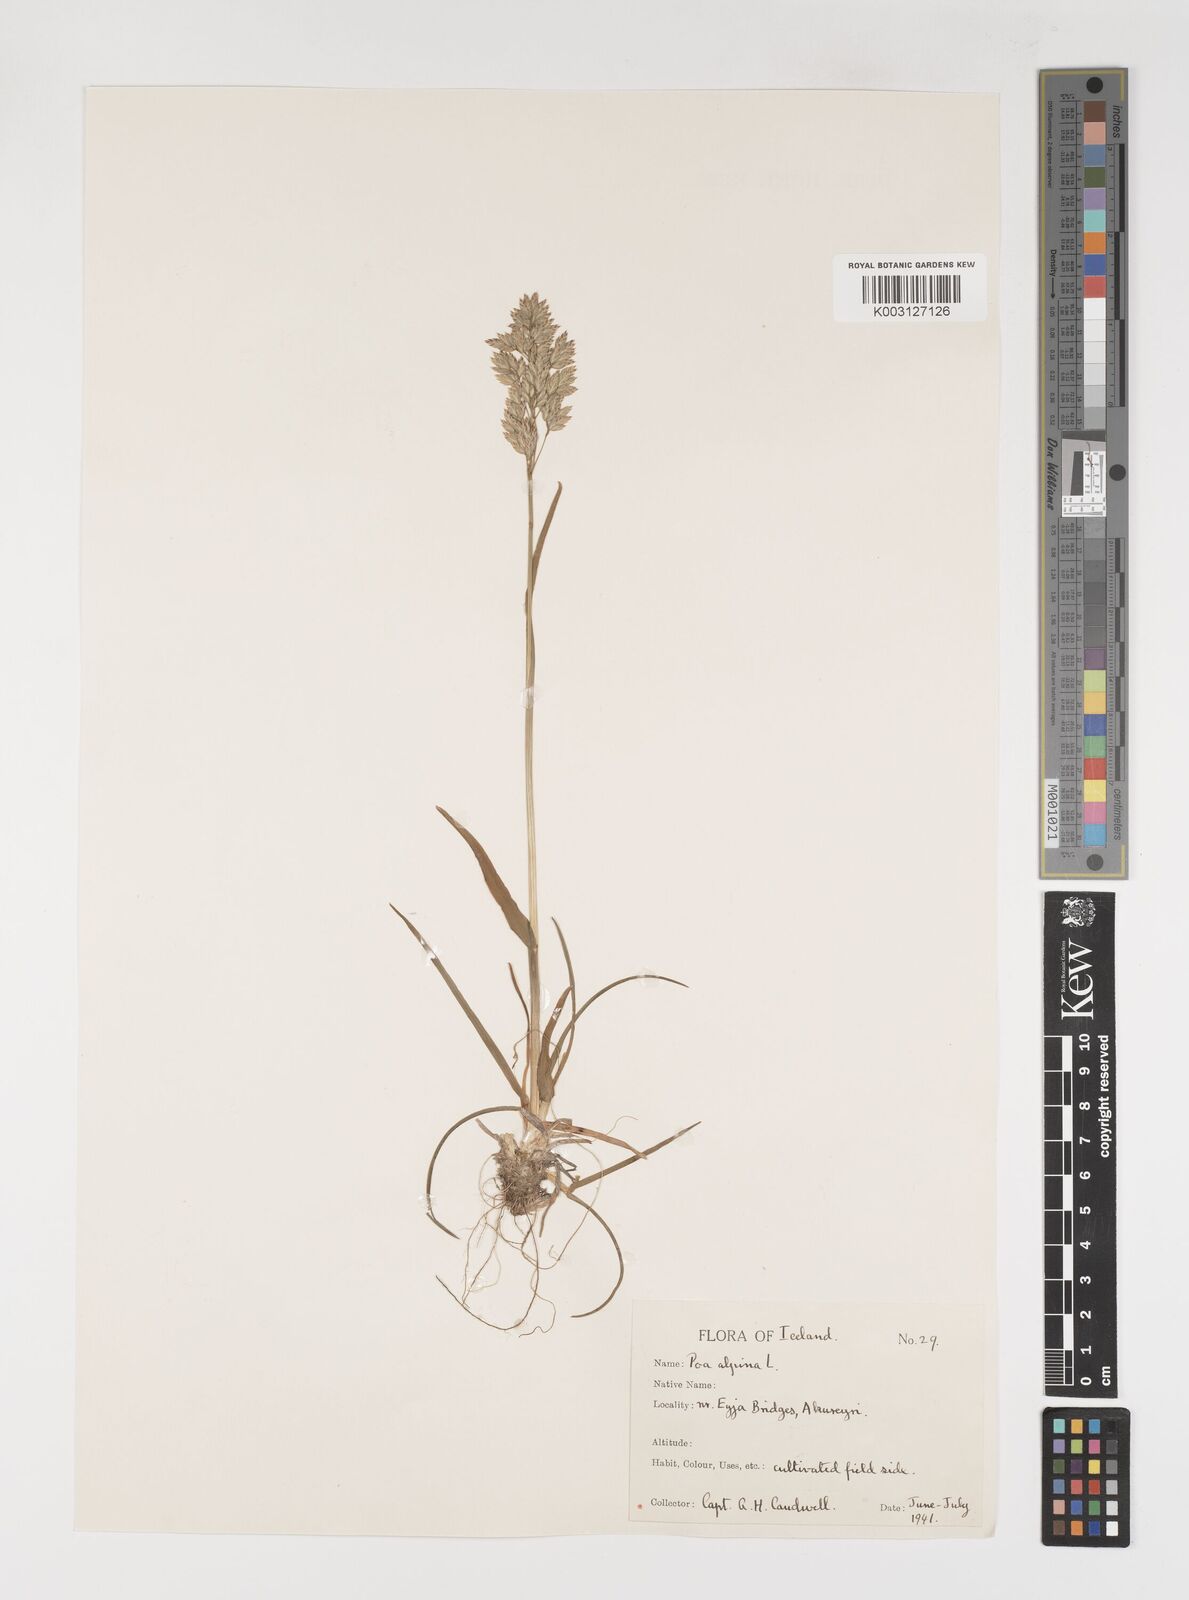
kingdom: Plantae
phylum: Tracheophyta
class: Liliopsida
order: Poales
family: Poaceae
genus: Poa
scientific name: Poa alpina
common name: Alpine bluegrass
